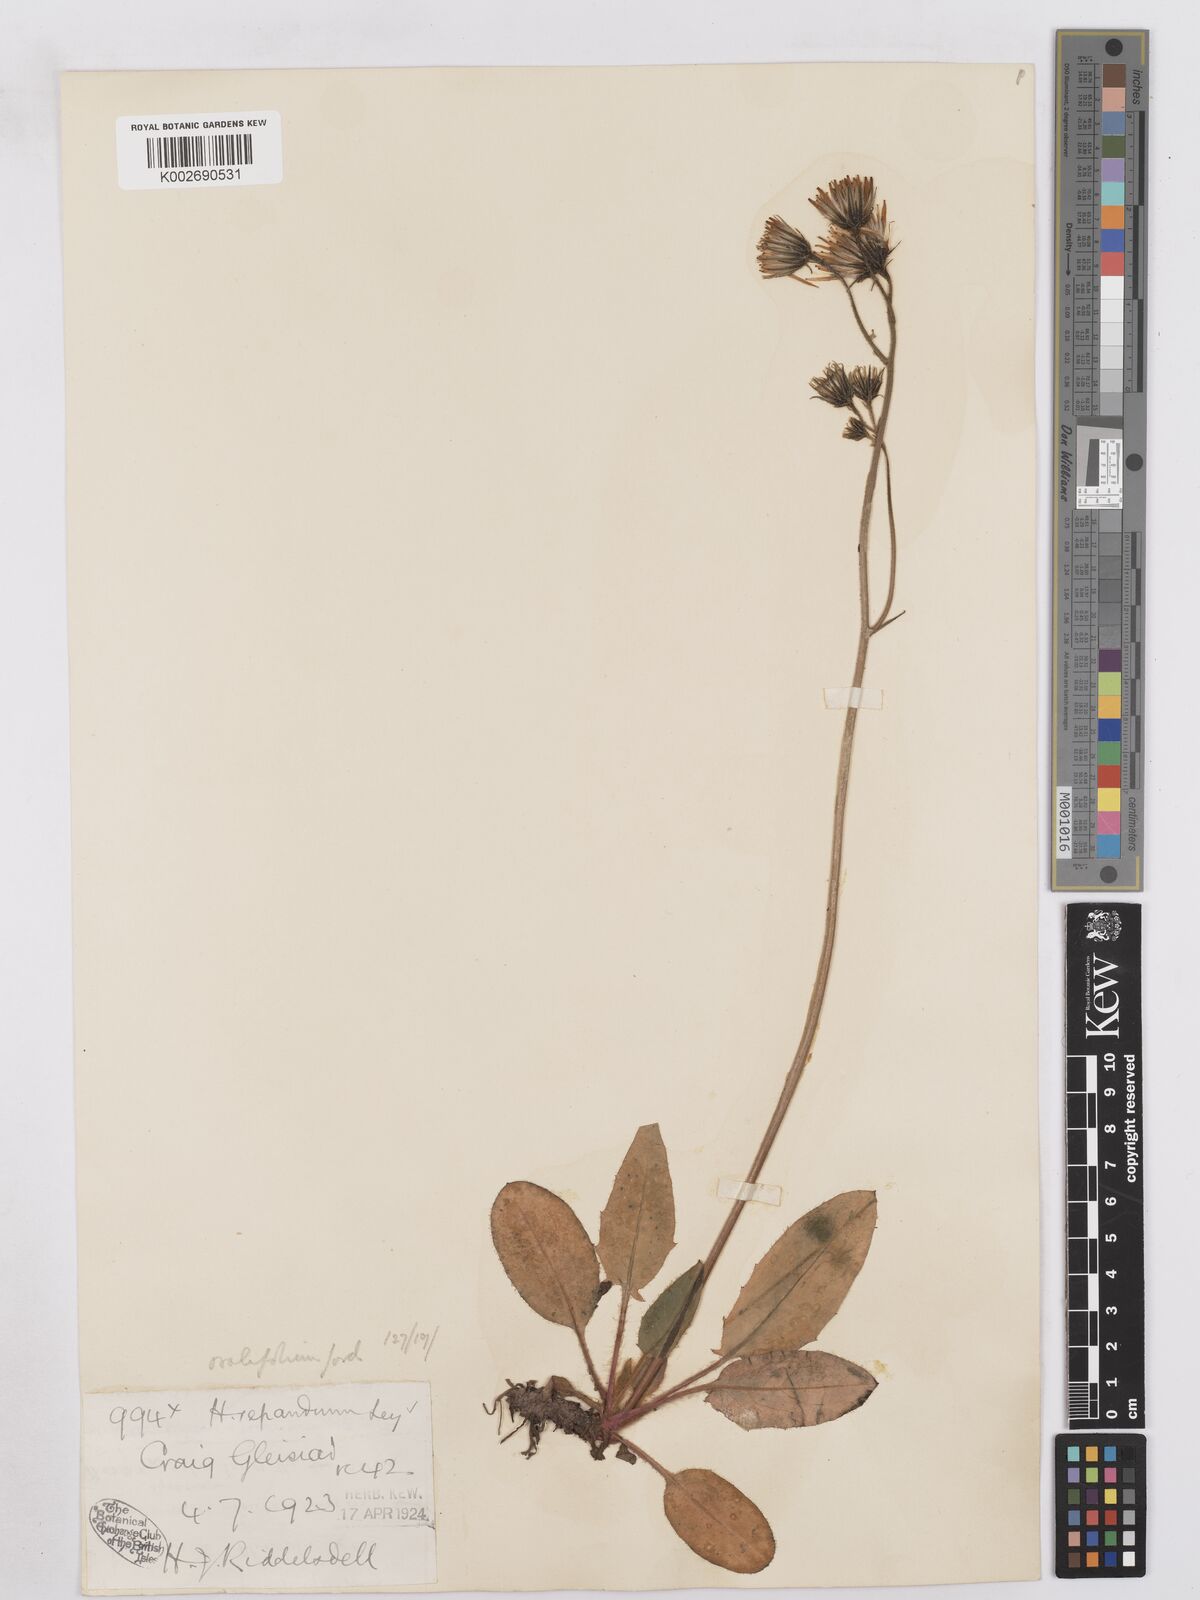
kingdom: Plantae
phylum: Tracheophyta
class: Magnoliopsida
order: Asterales
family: Asteraceae
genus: Hieracium
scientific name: Hieracium repandulare
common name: Repand-leaved hawkweed
